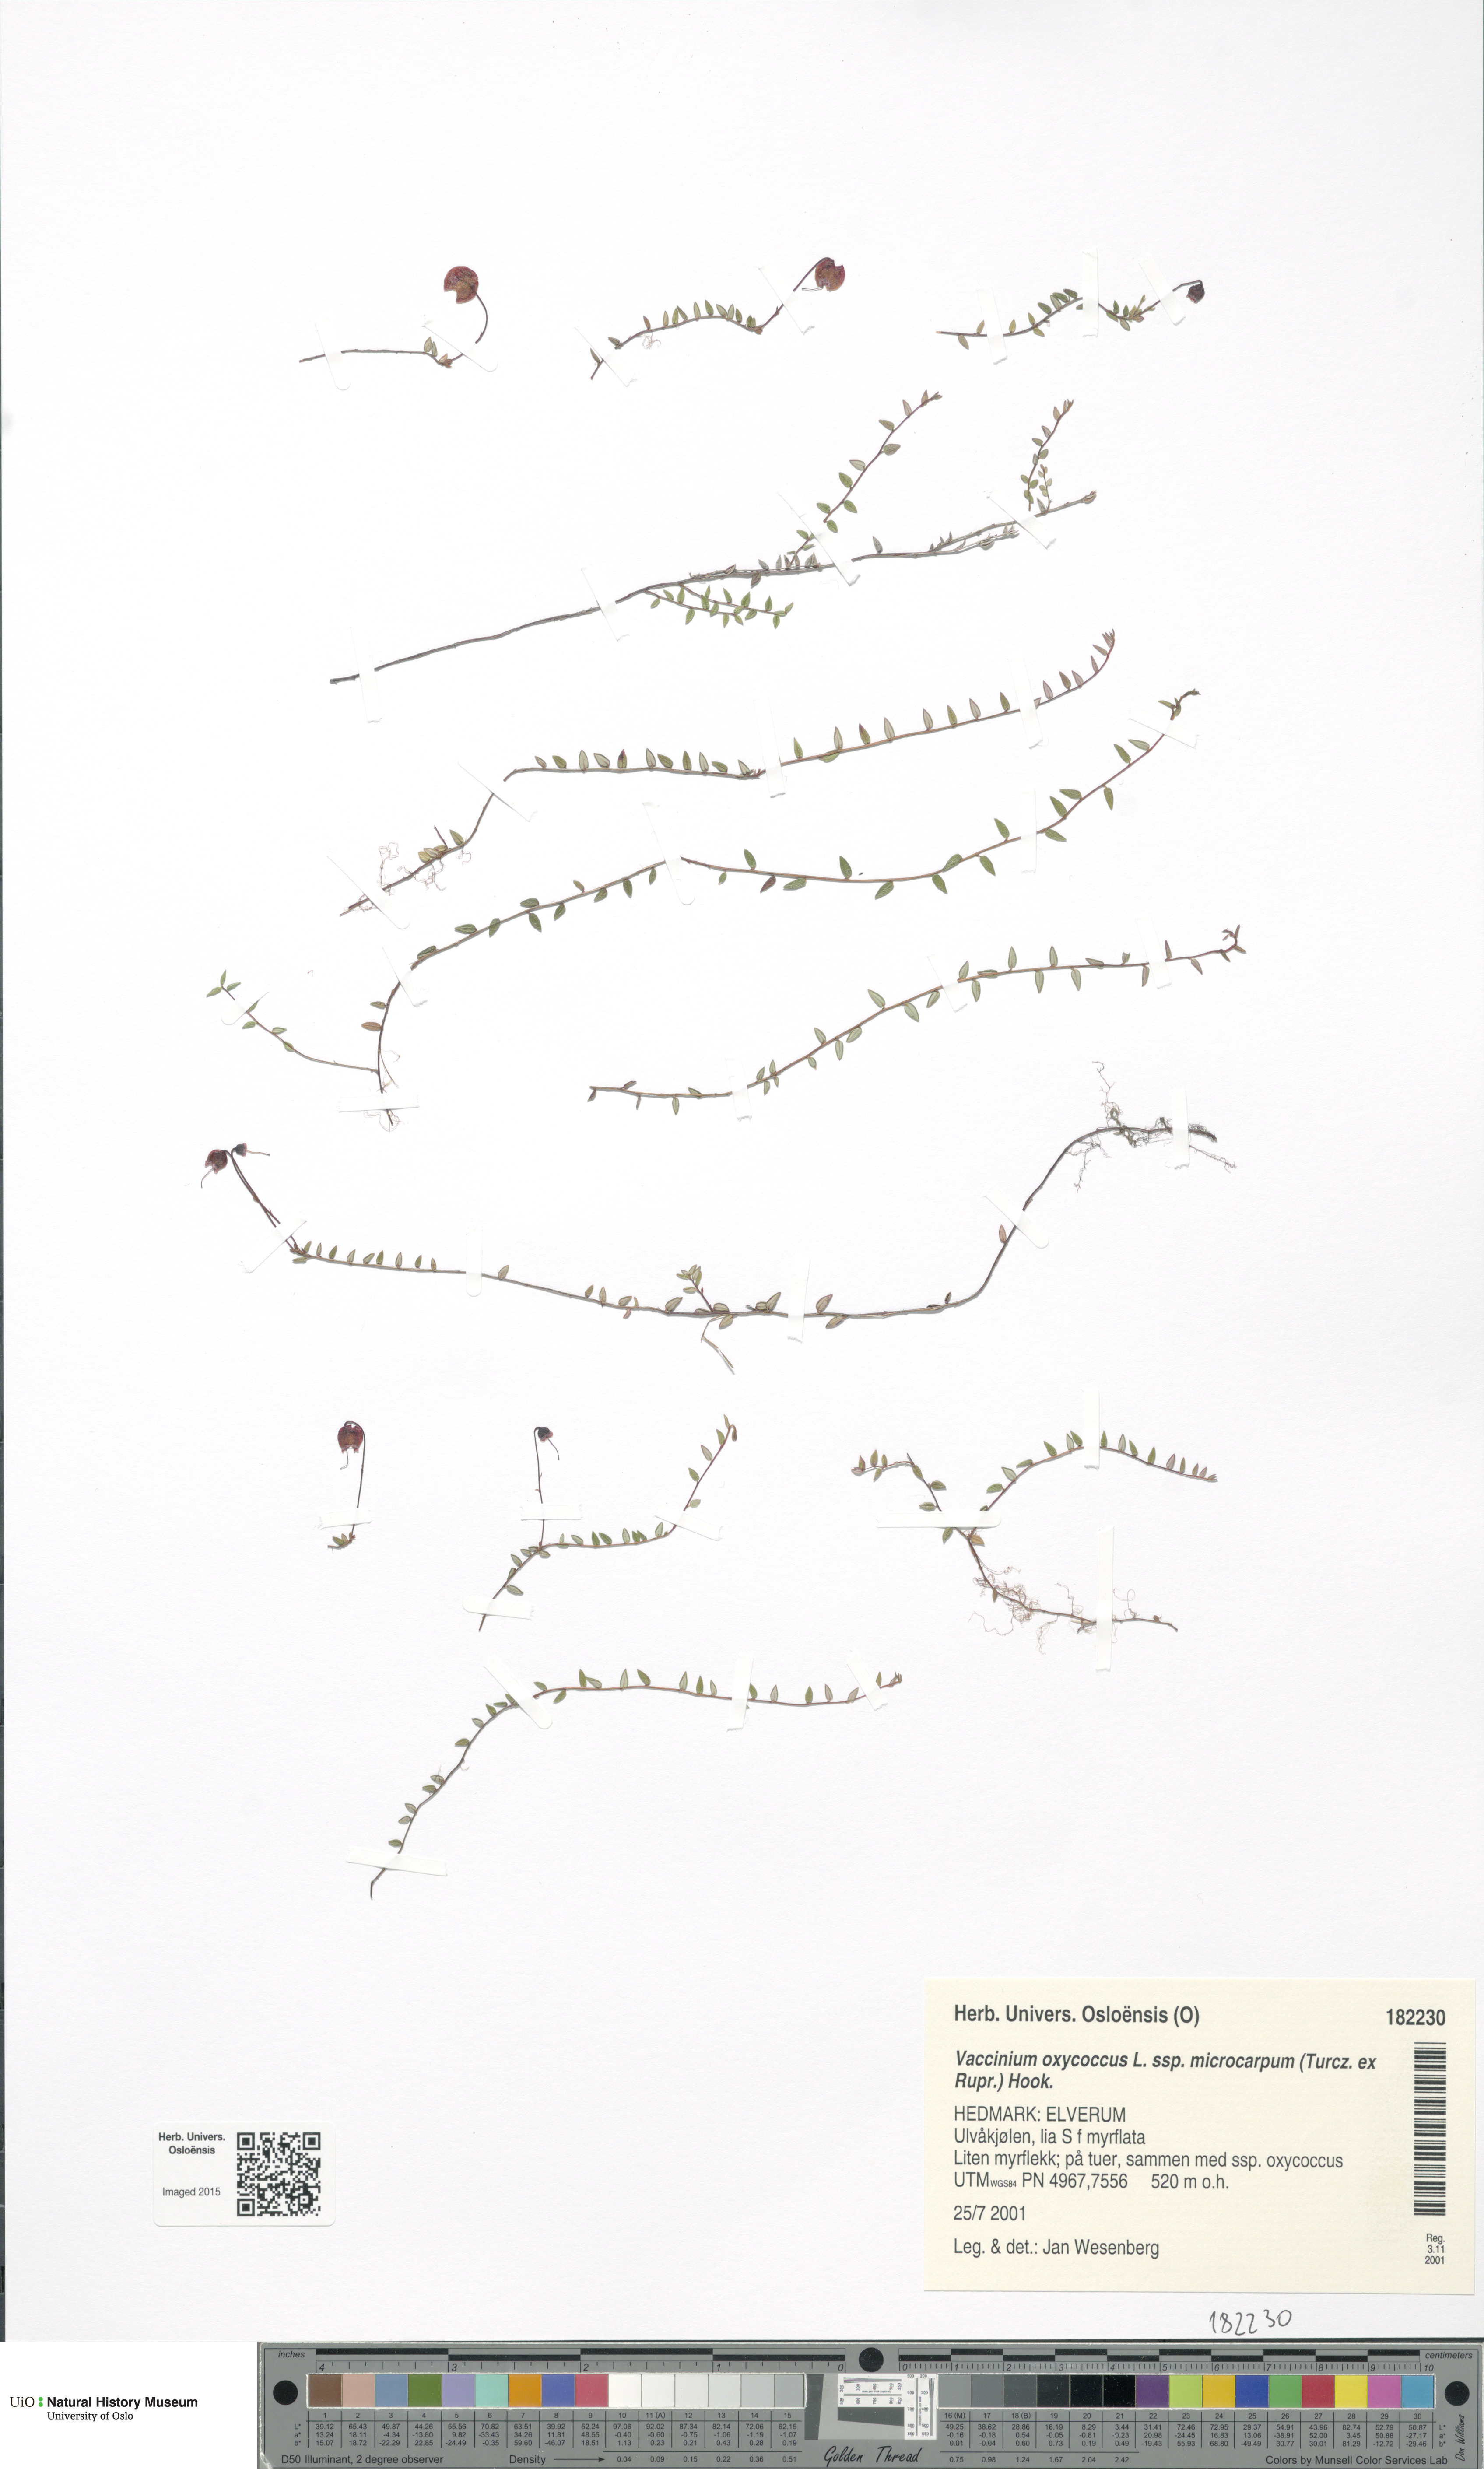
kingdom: Plantae
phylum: Tracheophyta
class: Magnoliopsida
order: Ericales
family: Ericaceae
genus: Vaccinium
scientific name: Vaccinium microcarpum
